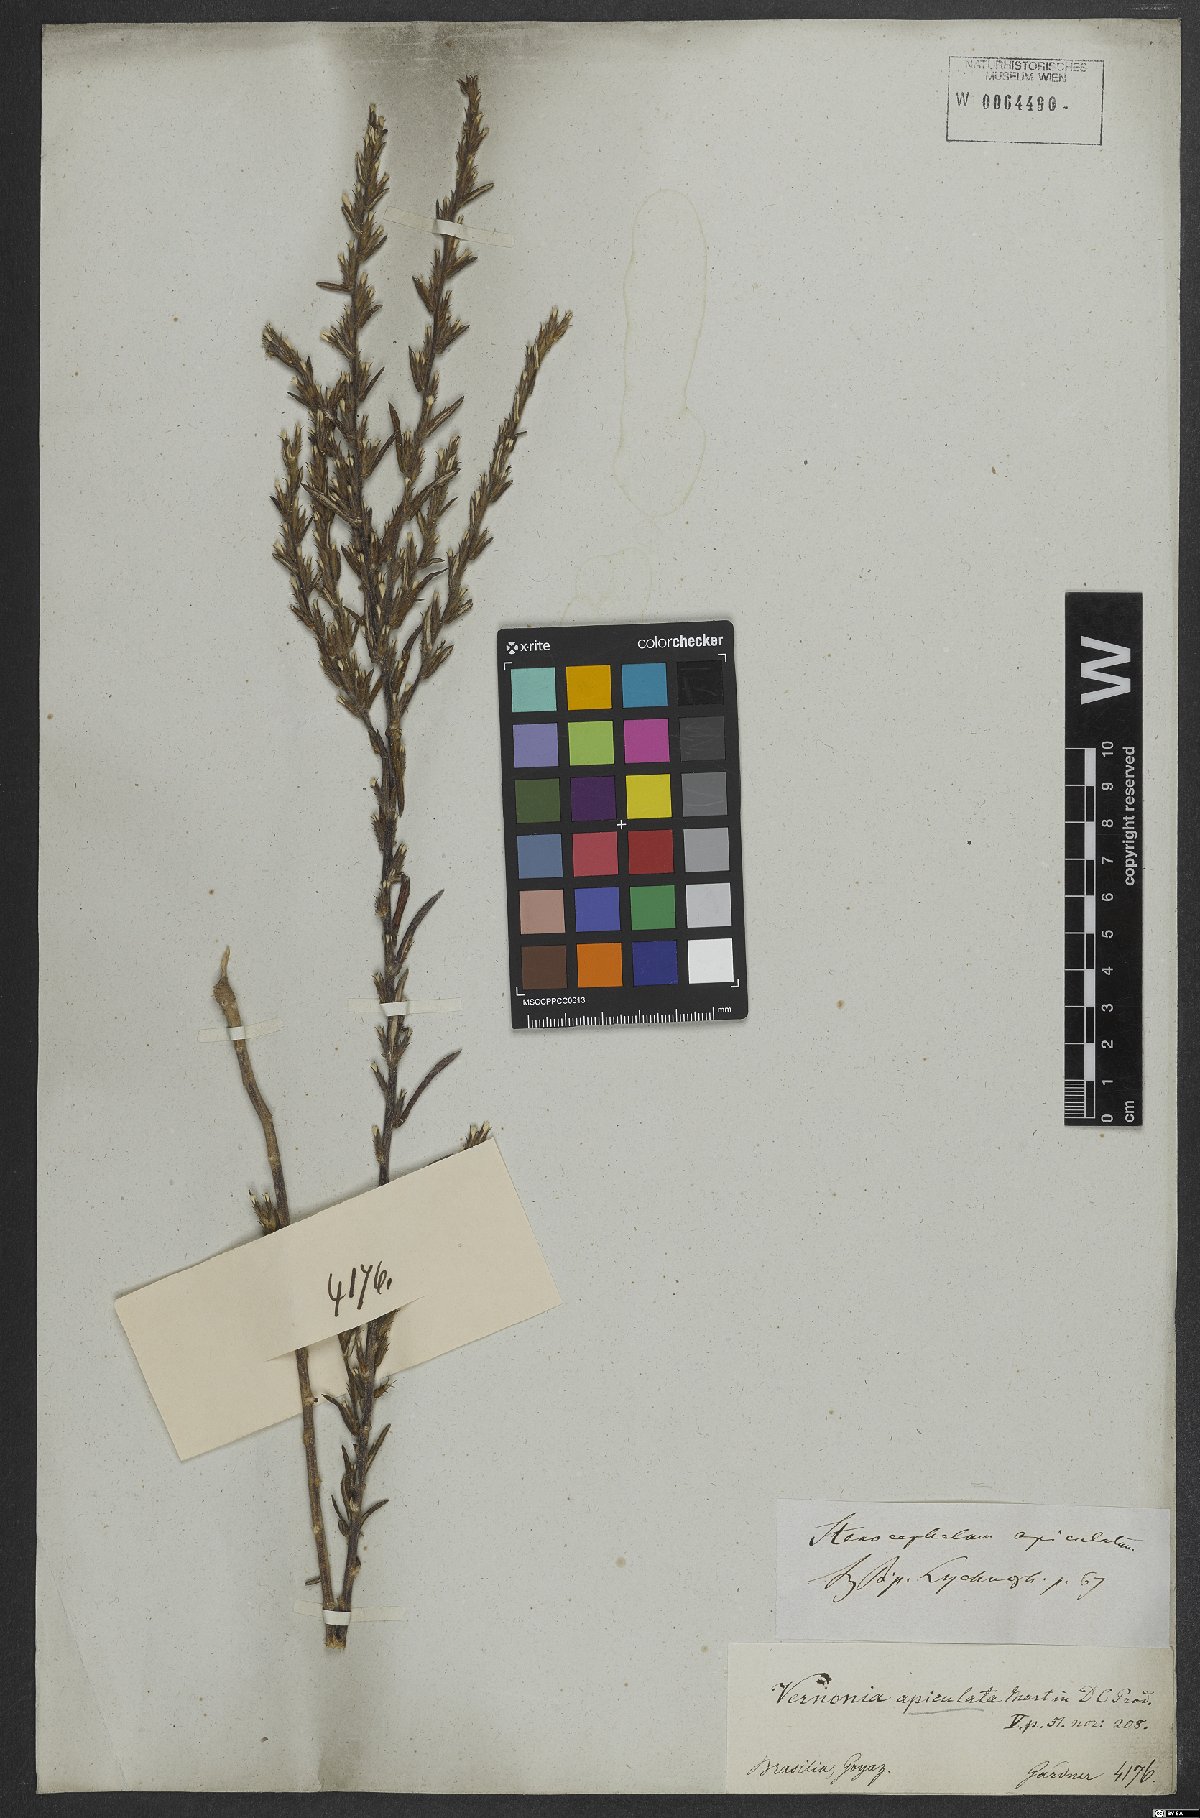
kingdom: Plantae
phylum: Tracheophyta
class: Magnoliopsida
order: Asterales
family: Asteraceae
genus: Stenocephalum
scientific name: Stenocephalum apiculatum
